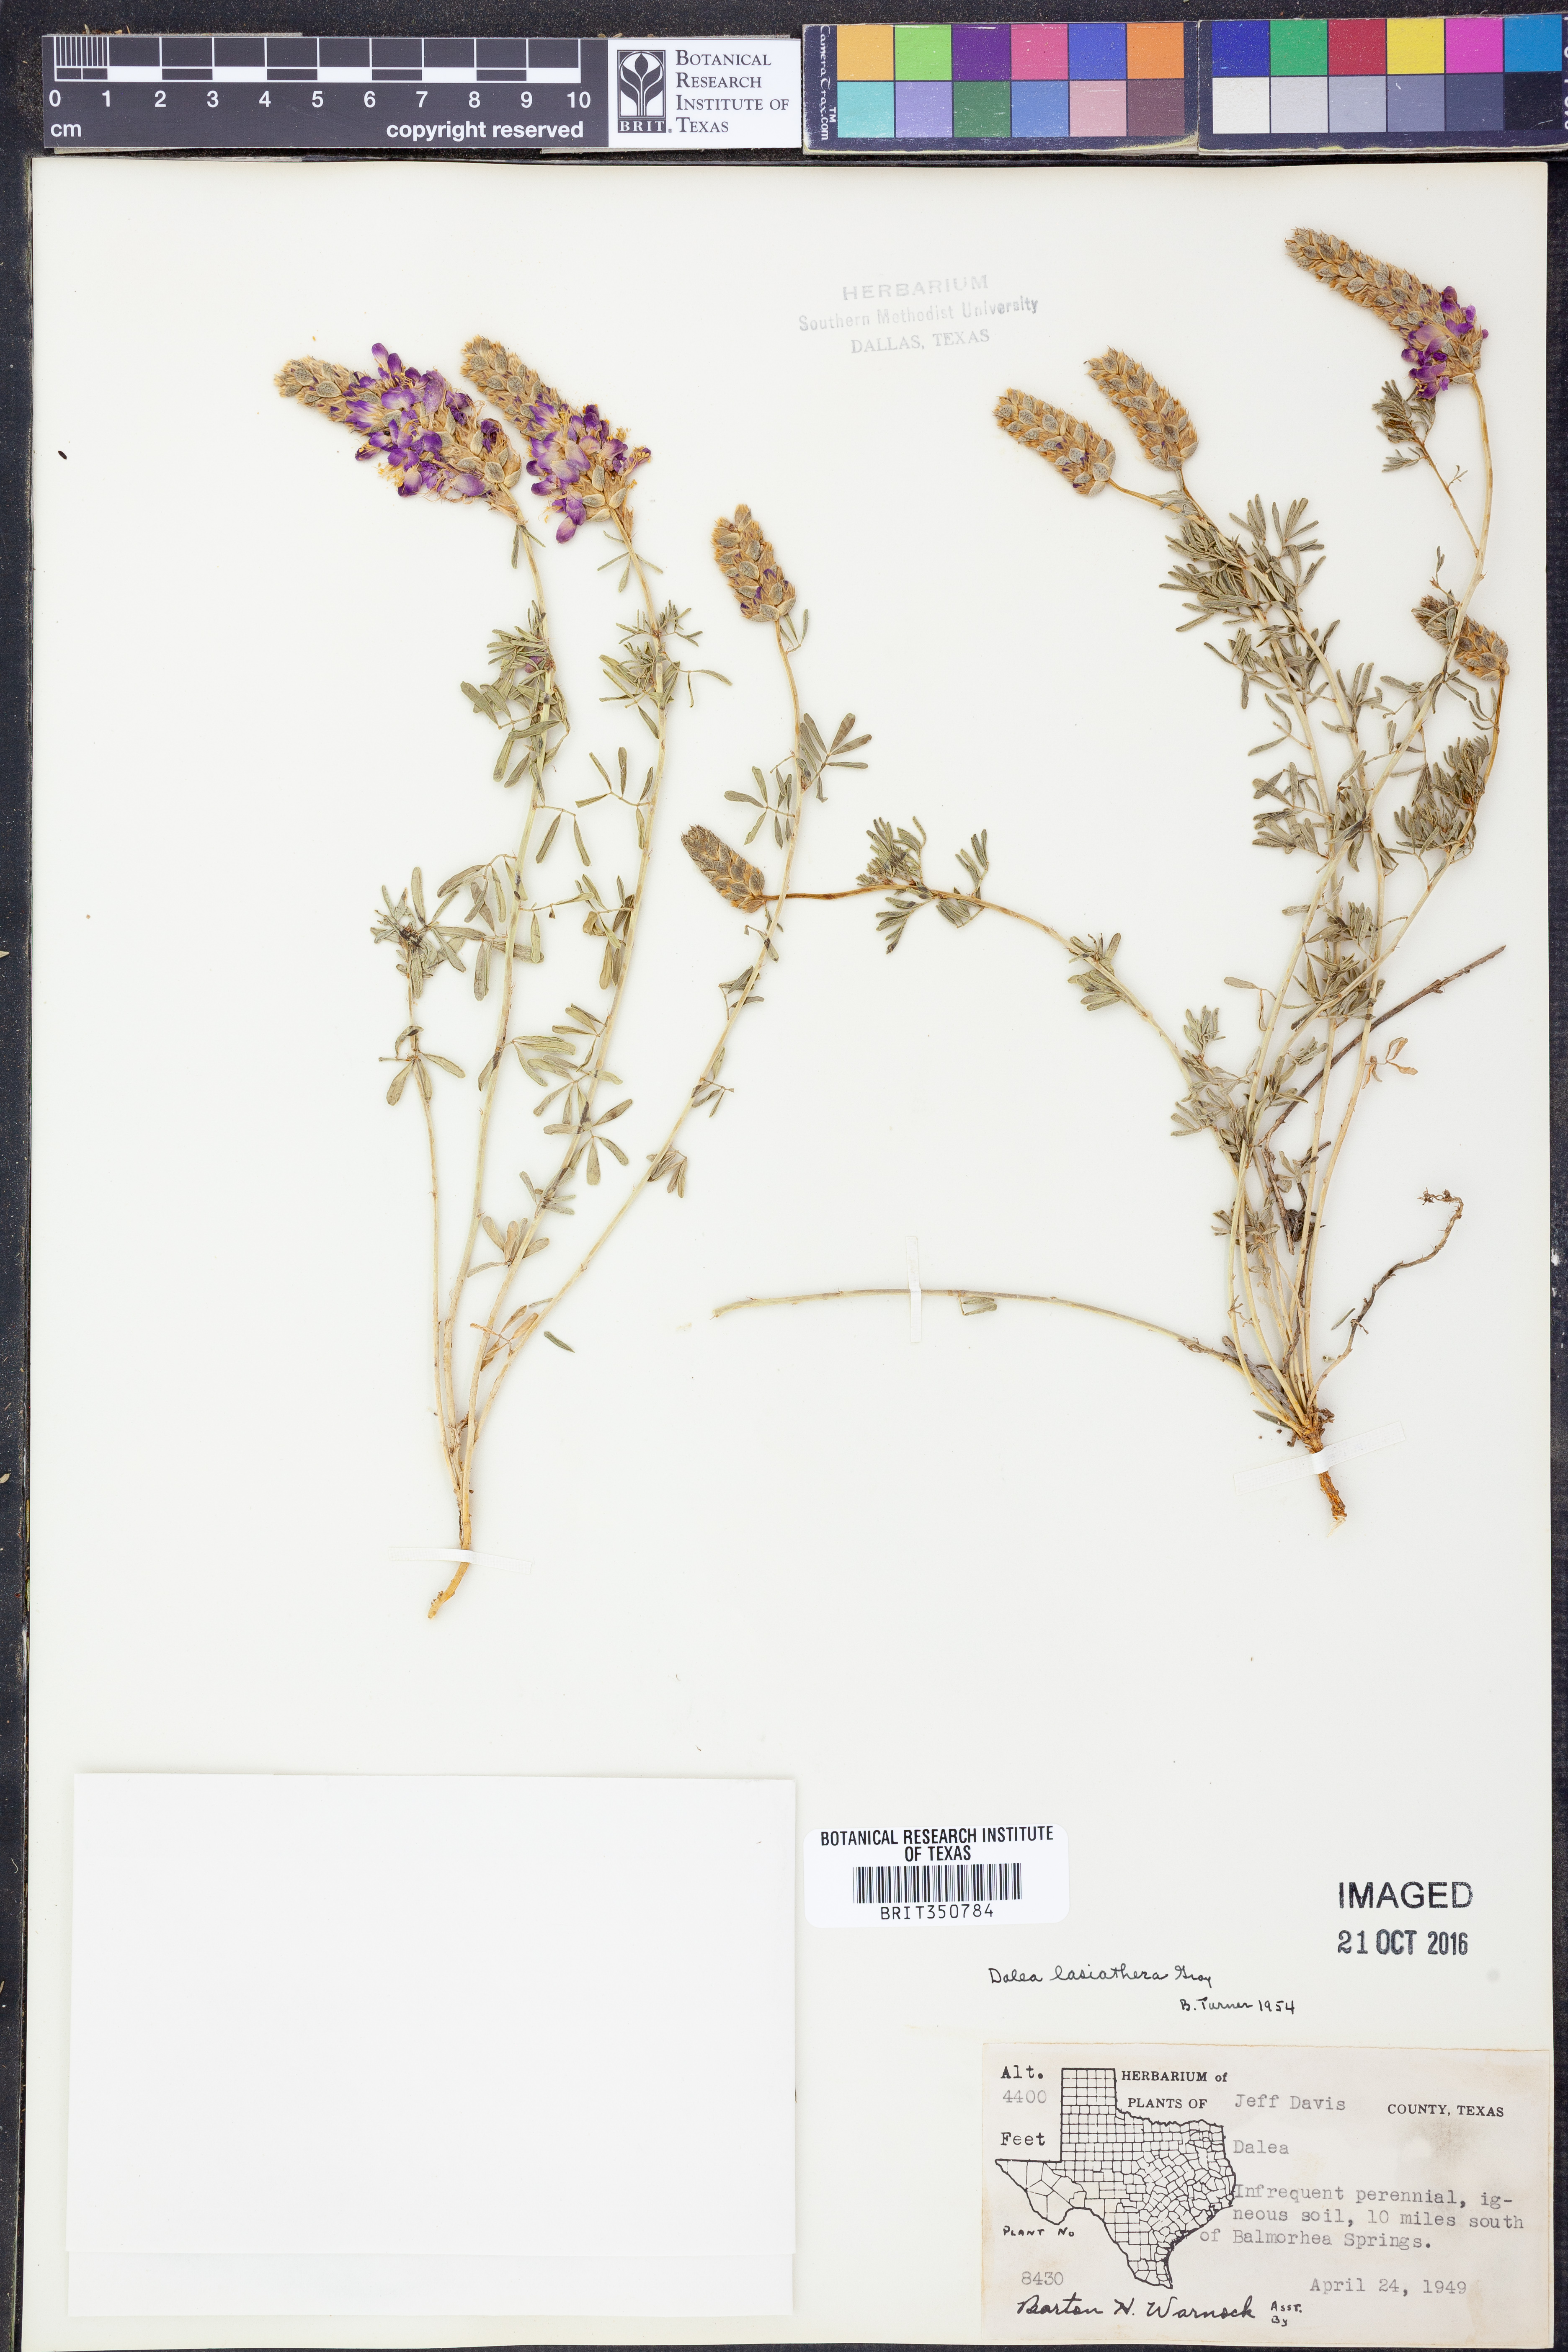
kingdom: Plantae
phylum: Tracheophyta
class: Magnoliopsida
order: Fabales
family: Fabaceae
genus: Dalea
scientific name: Dalea lasiathera
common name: Purple prairie-clover
